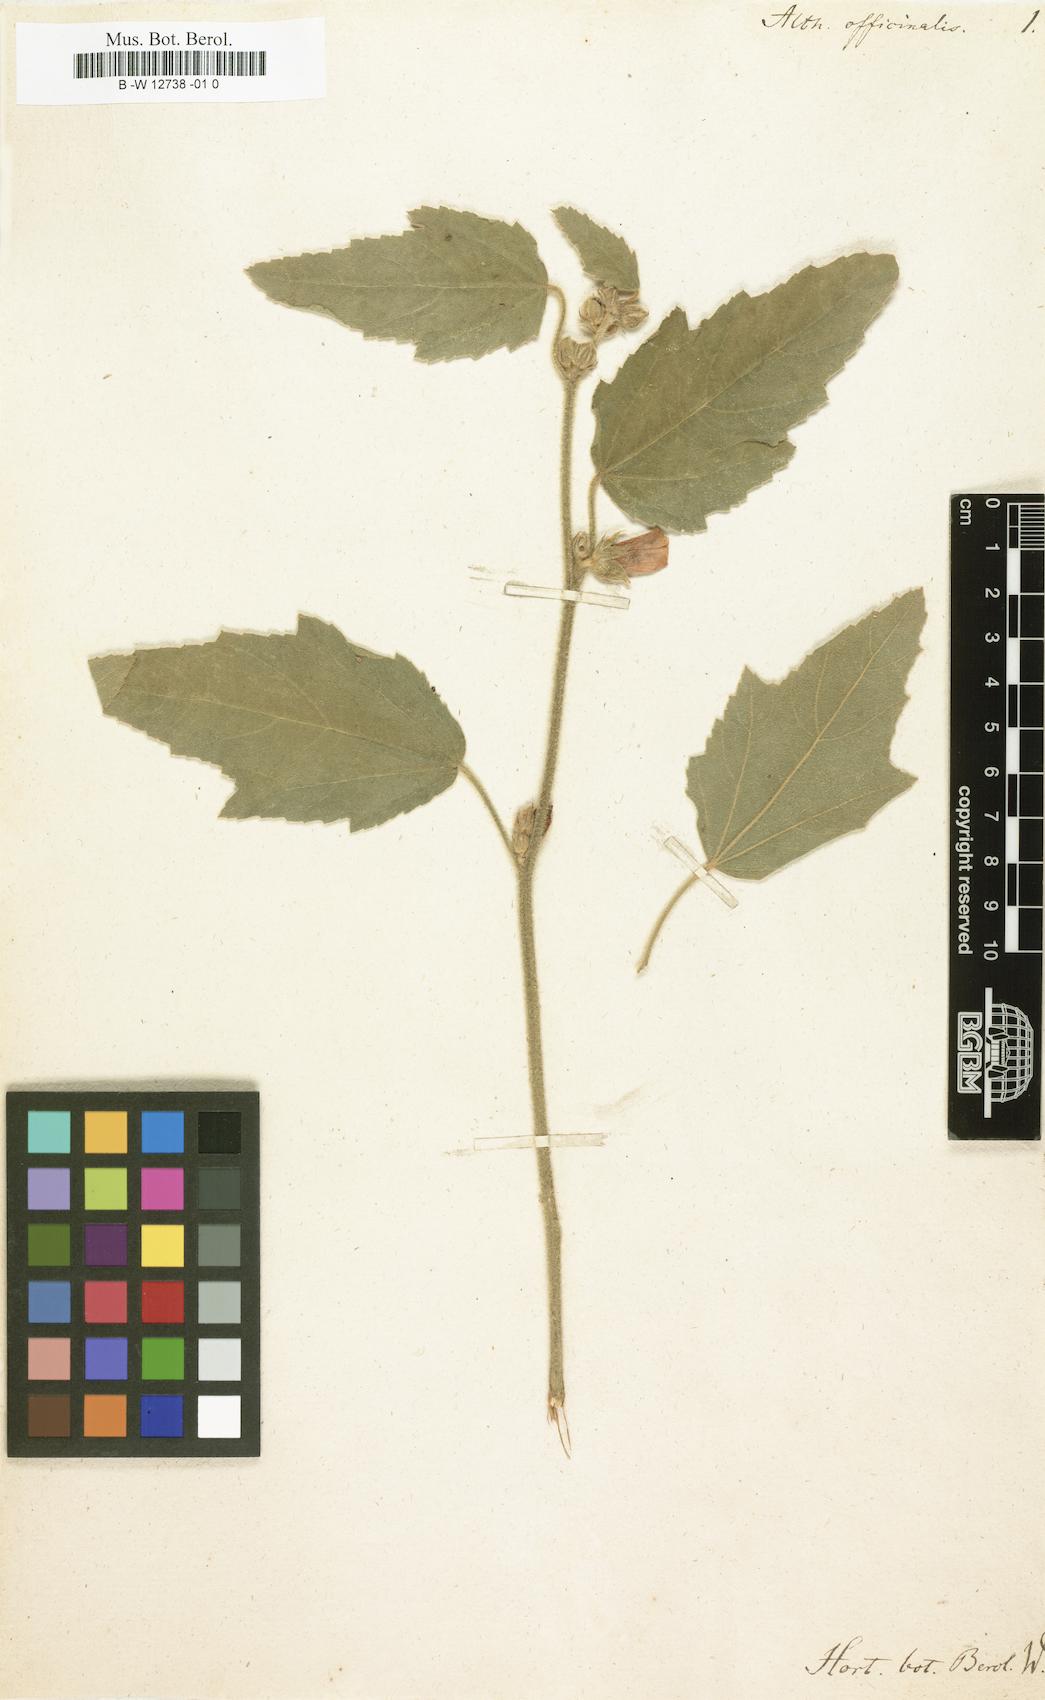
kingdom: Plantae
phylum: Tracheophyta
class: Magnoliopsida
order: Malvales
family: Malvaceae
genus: Althaea
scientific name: Althaea officinalis
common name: Marsh-mallow
